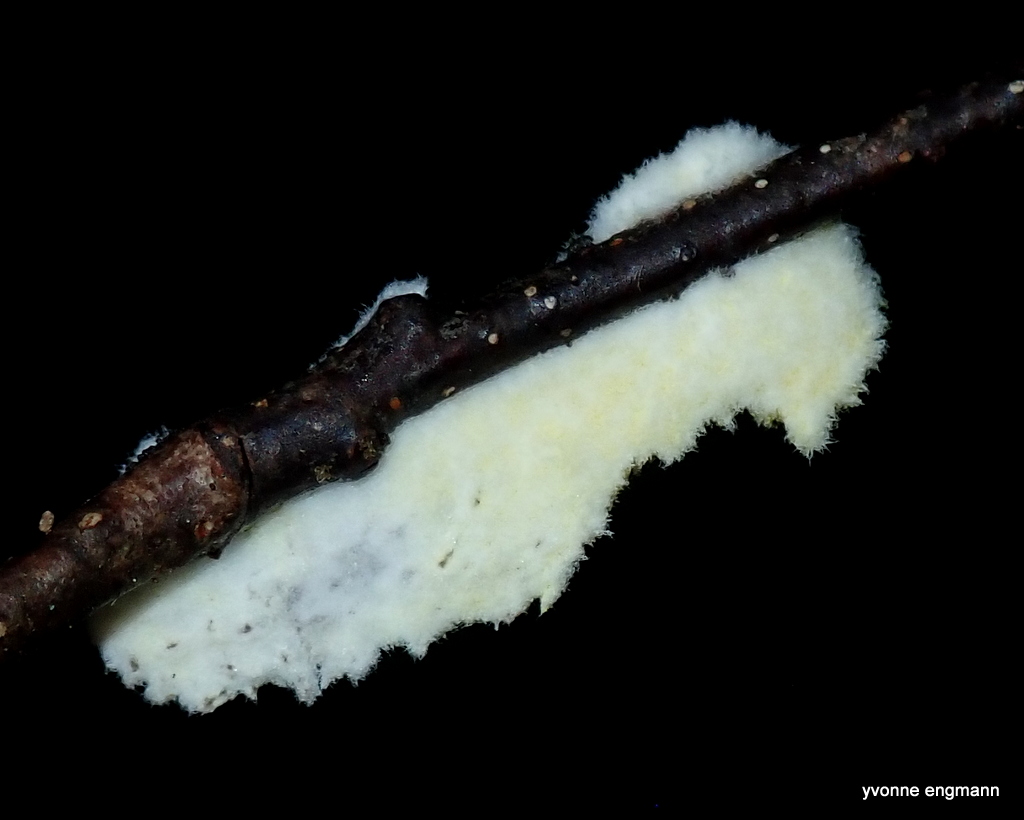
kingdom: Fungi
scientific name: Fungi
